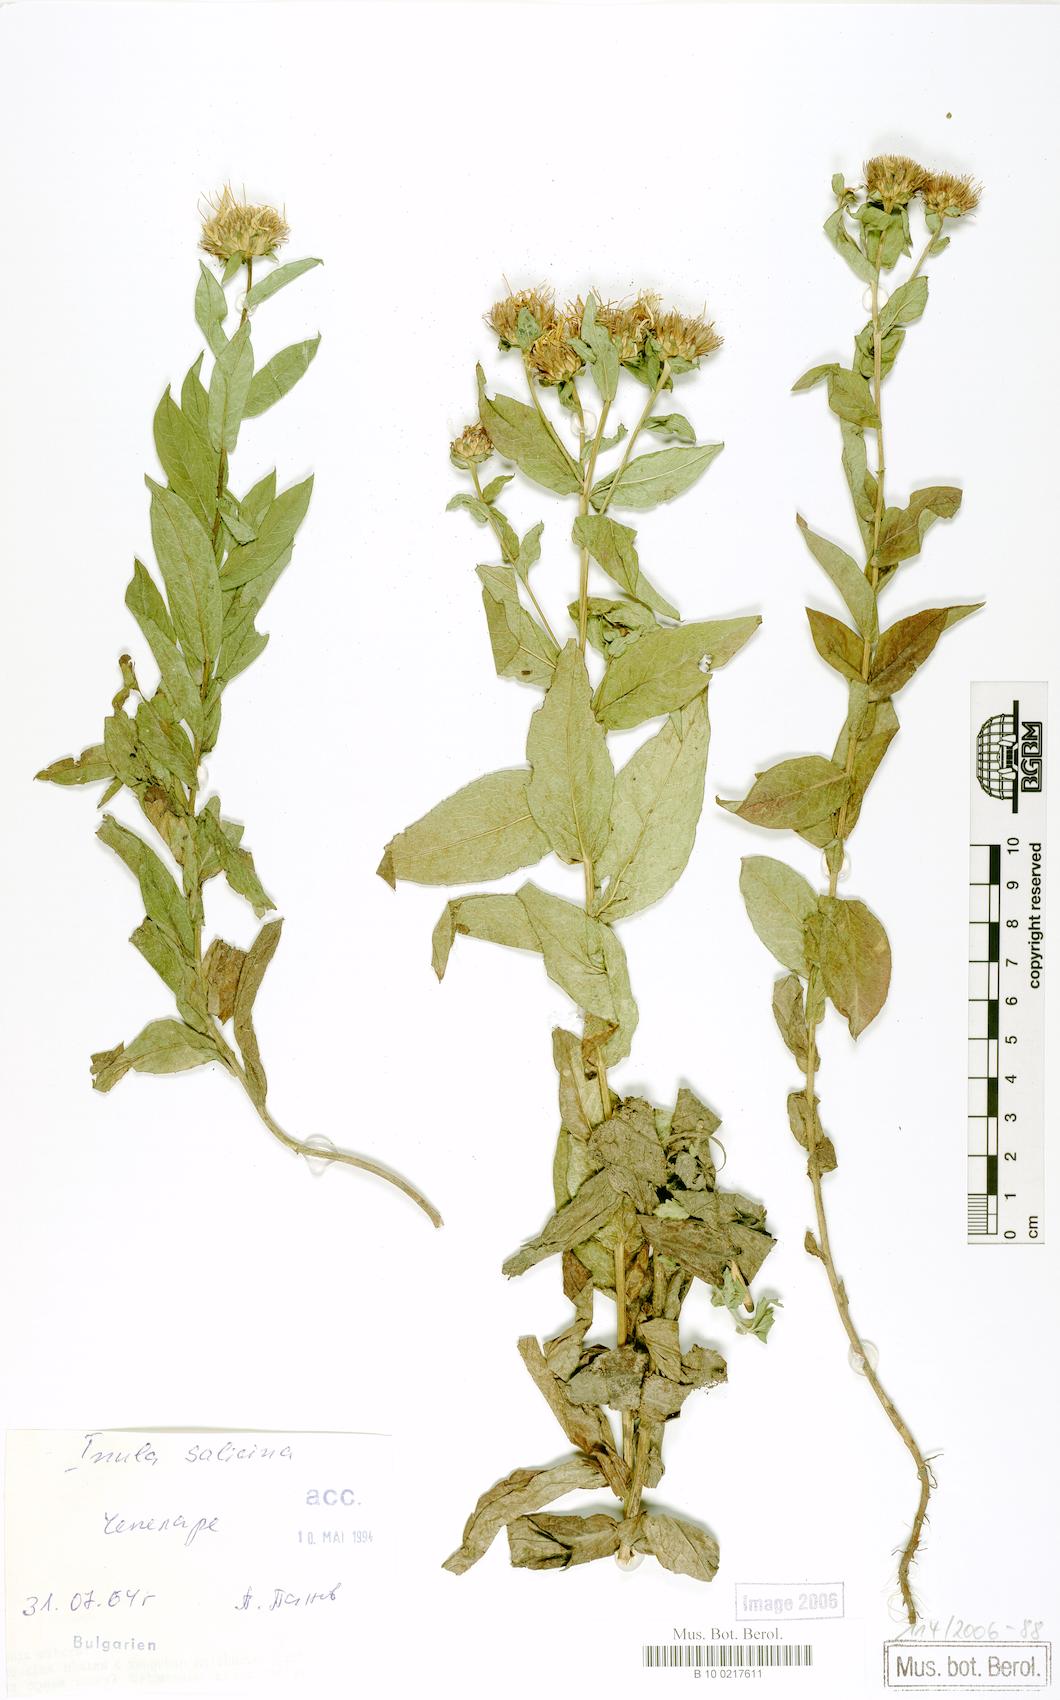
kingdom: Plantae
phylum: Tracheophyta
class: Magnoliopsida
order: Asterales
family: Asteraceae
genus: Pentanema
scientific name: Pentanema salicinum
